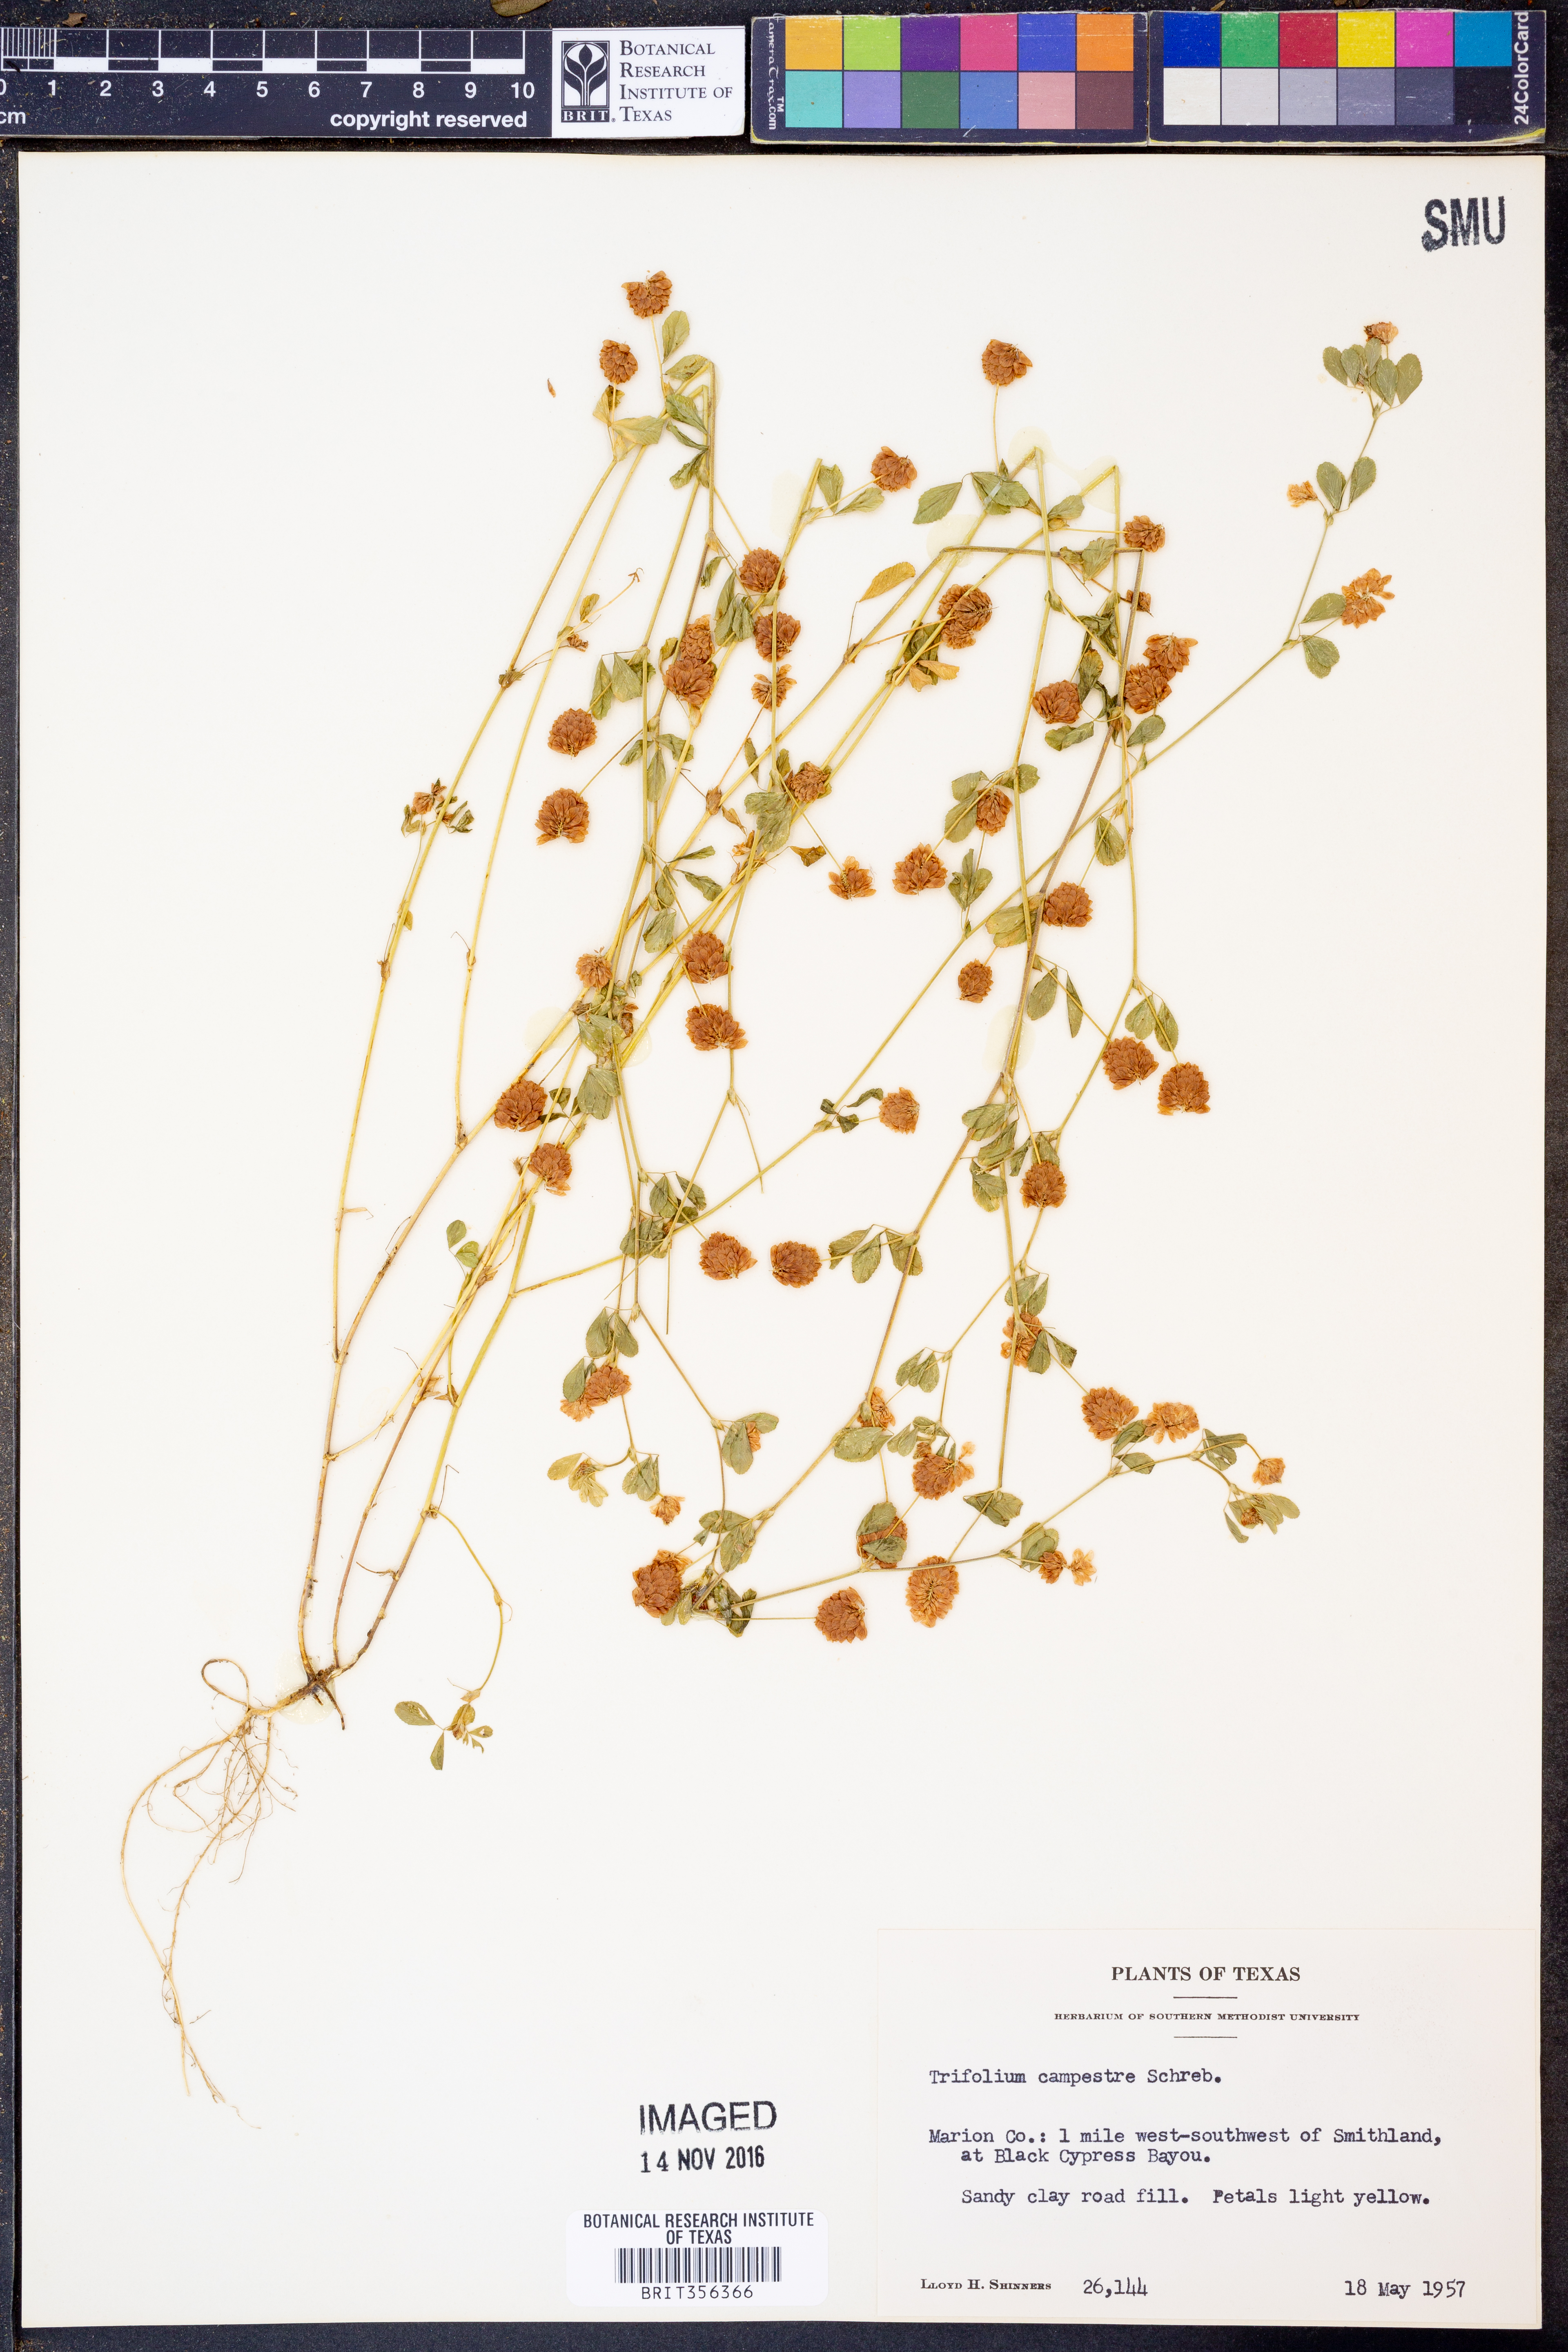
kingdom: Plantae
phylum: Tracheophyta
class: Magnoliopsida
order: Fabales
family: Fabaceae
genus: Trifolium
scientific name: Trifolium campestre
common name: Field clover
